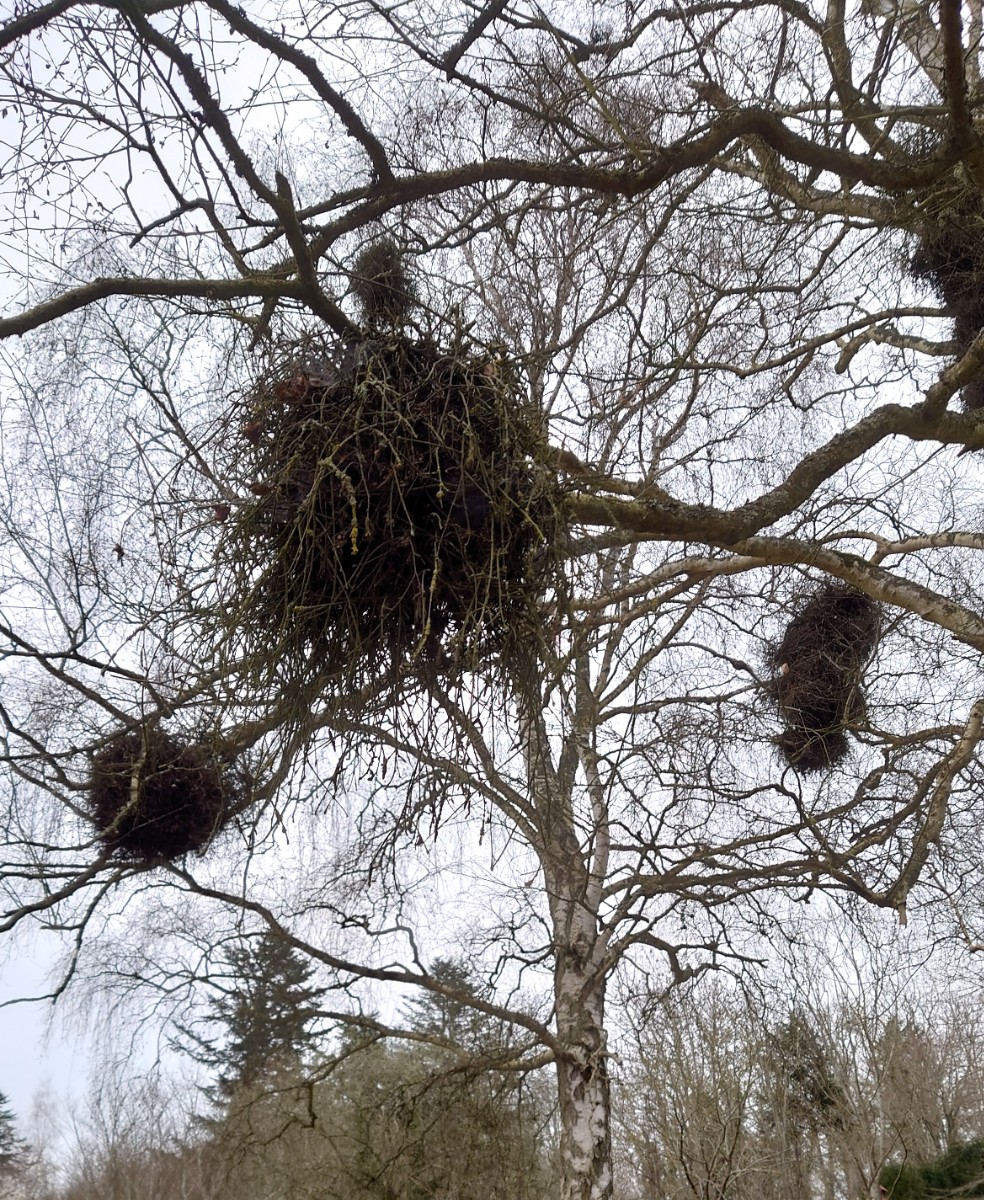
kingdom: Fungi
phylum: Ascomycota
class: Taphrinomycetes
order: Taphrinales
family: Taphrinaceae
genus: Taphrina
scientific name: Taphrina betulina
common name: hekse-sækdug
